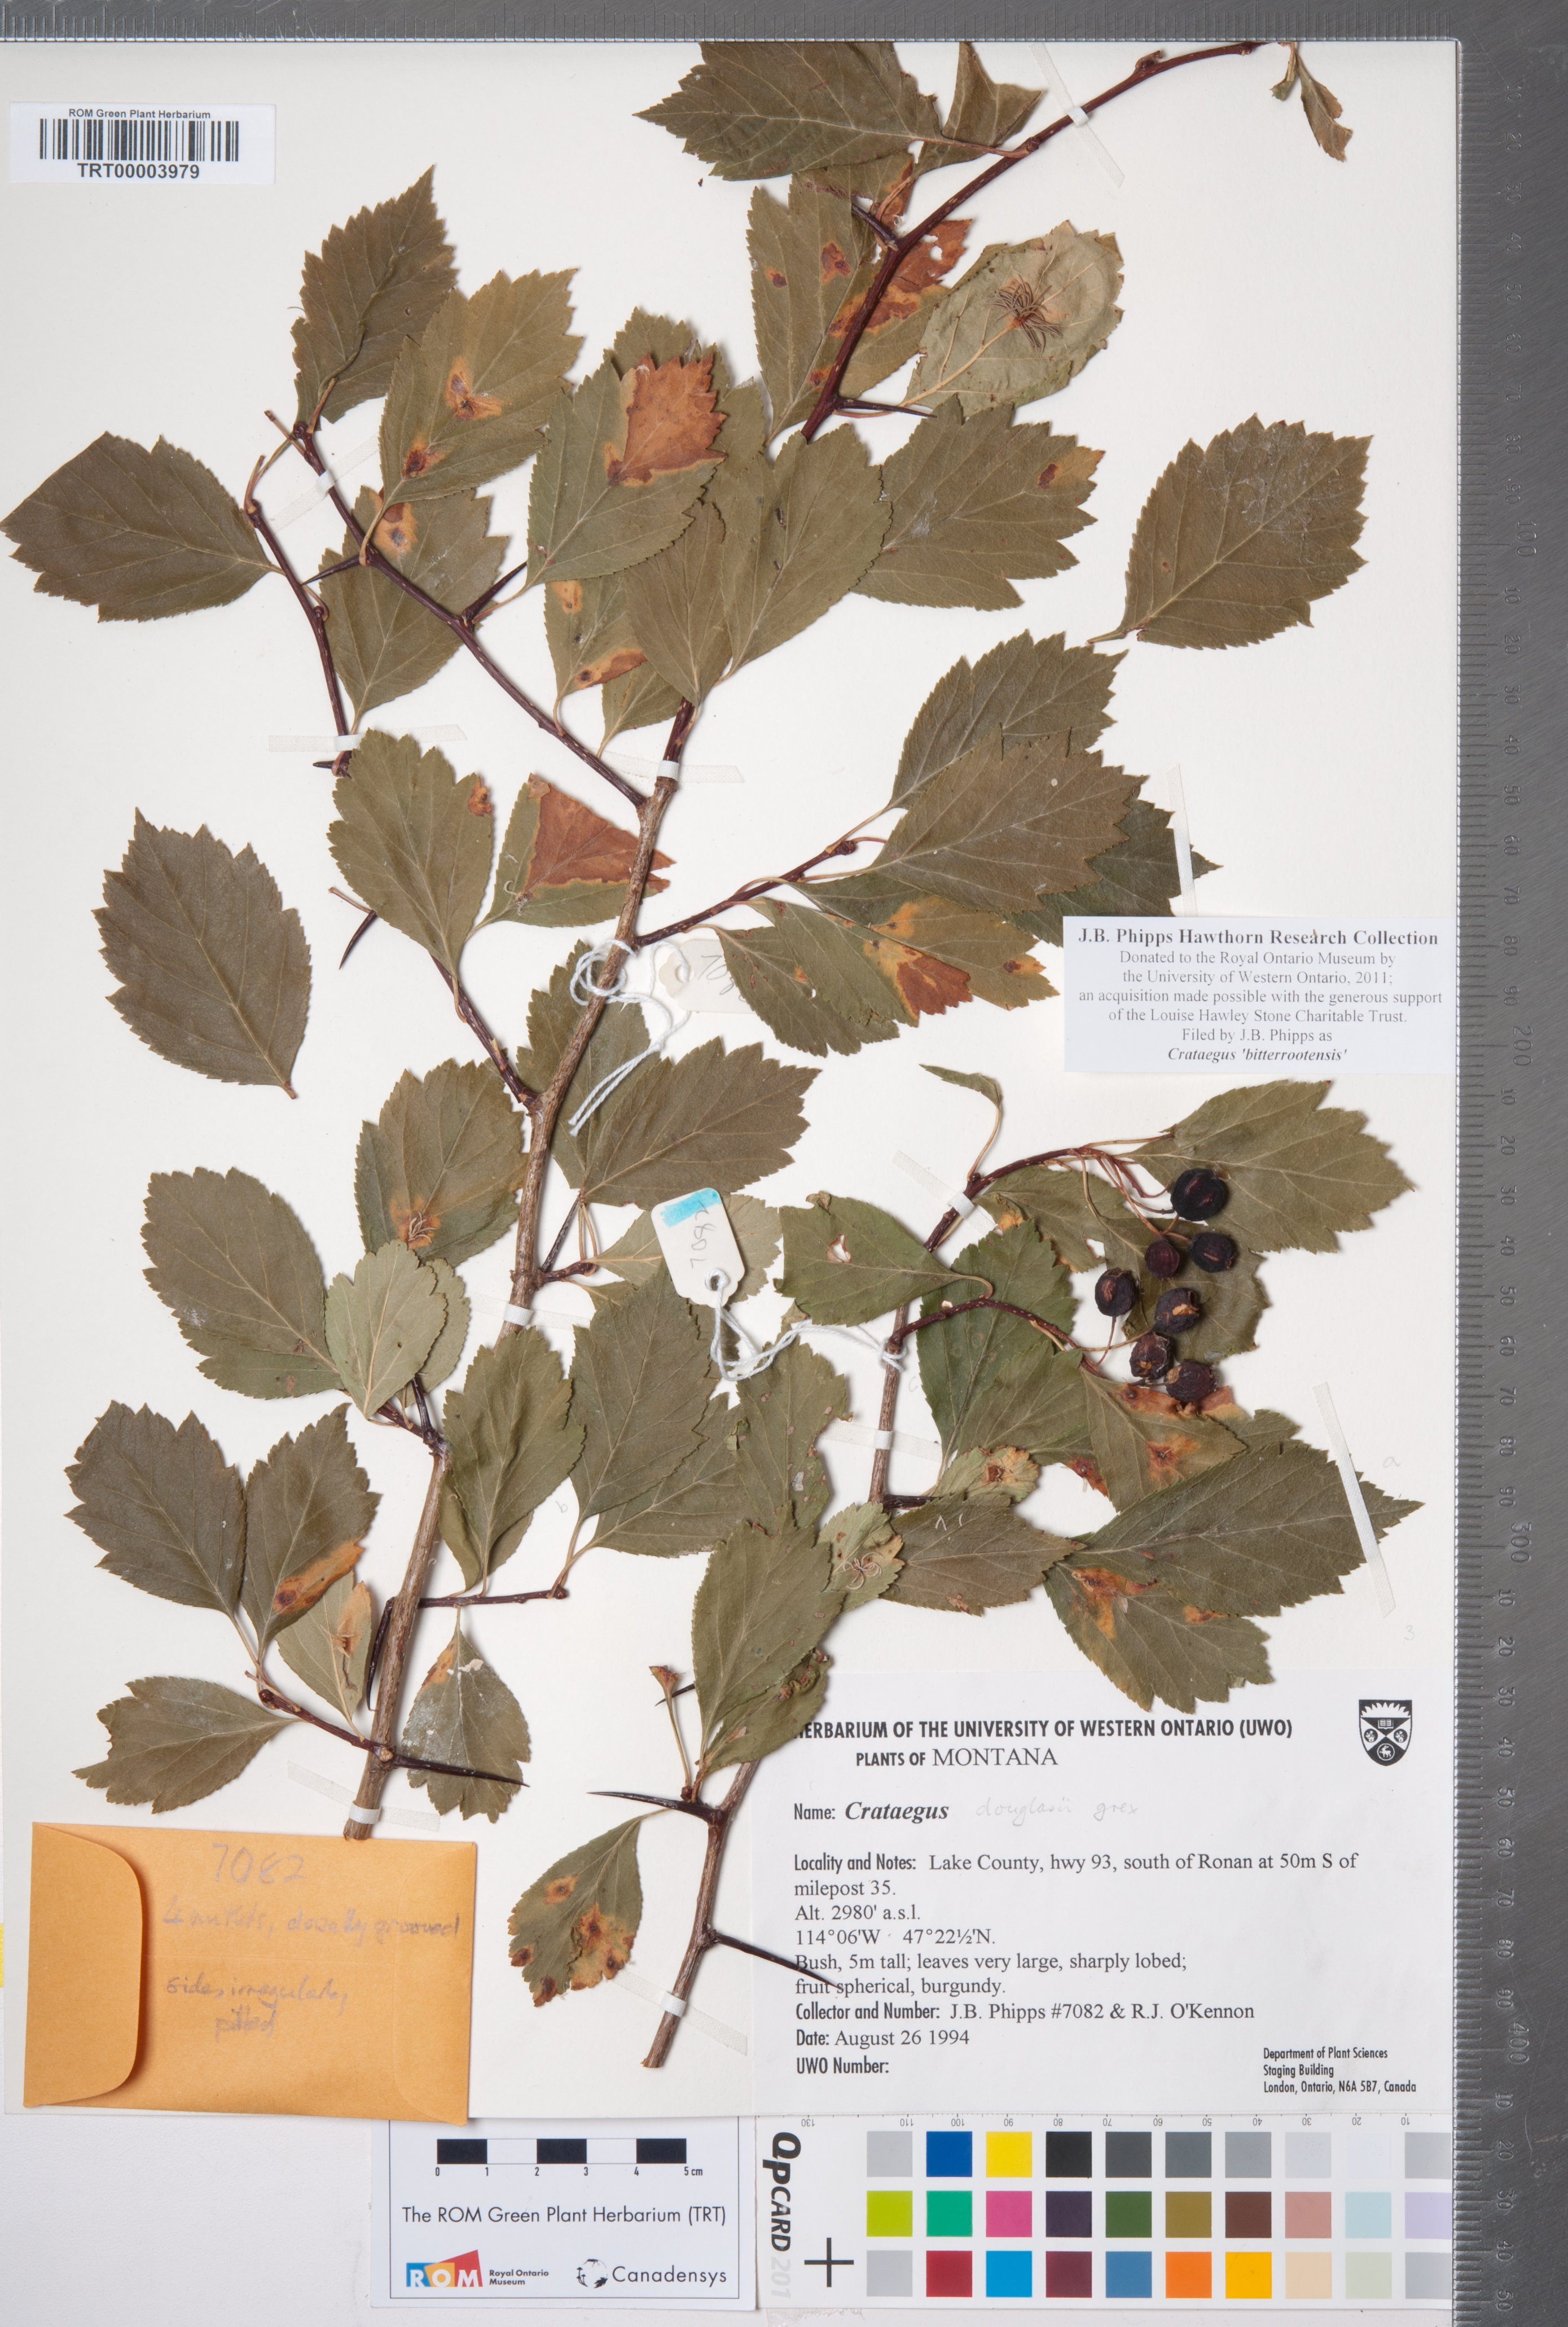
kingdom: Plantae
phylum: Tracheophyta
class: Magnoliopsida
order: Rosales
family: Rosaceae
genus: Crataegus
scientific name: Crataegus douglasii
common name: Black hawthorn
